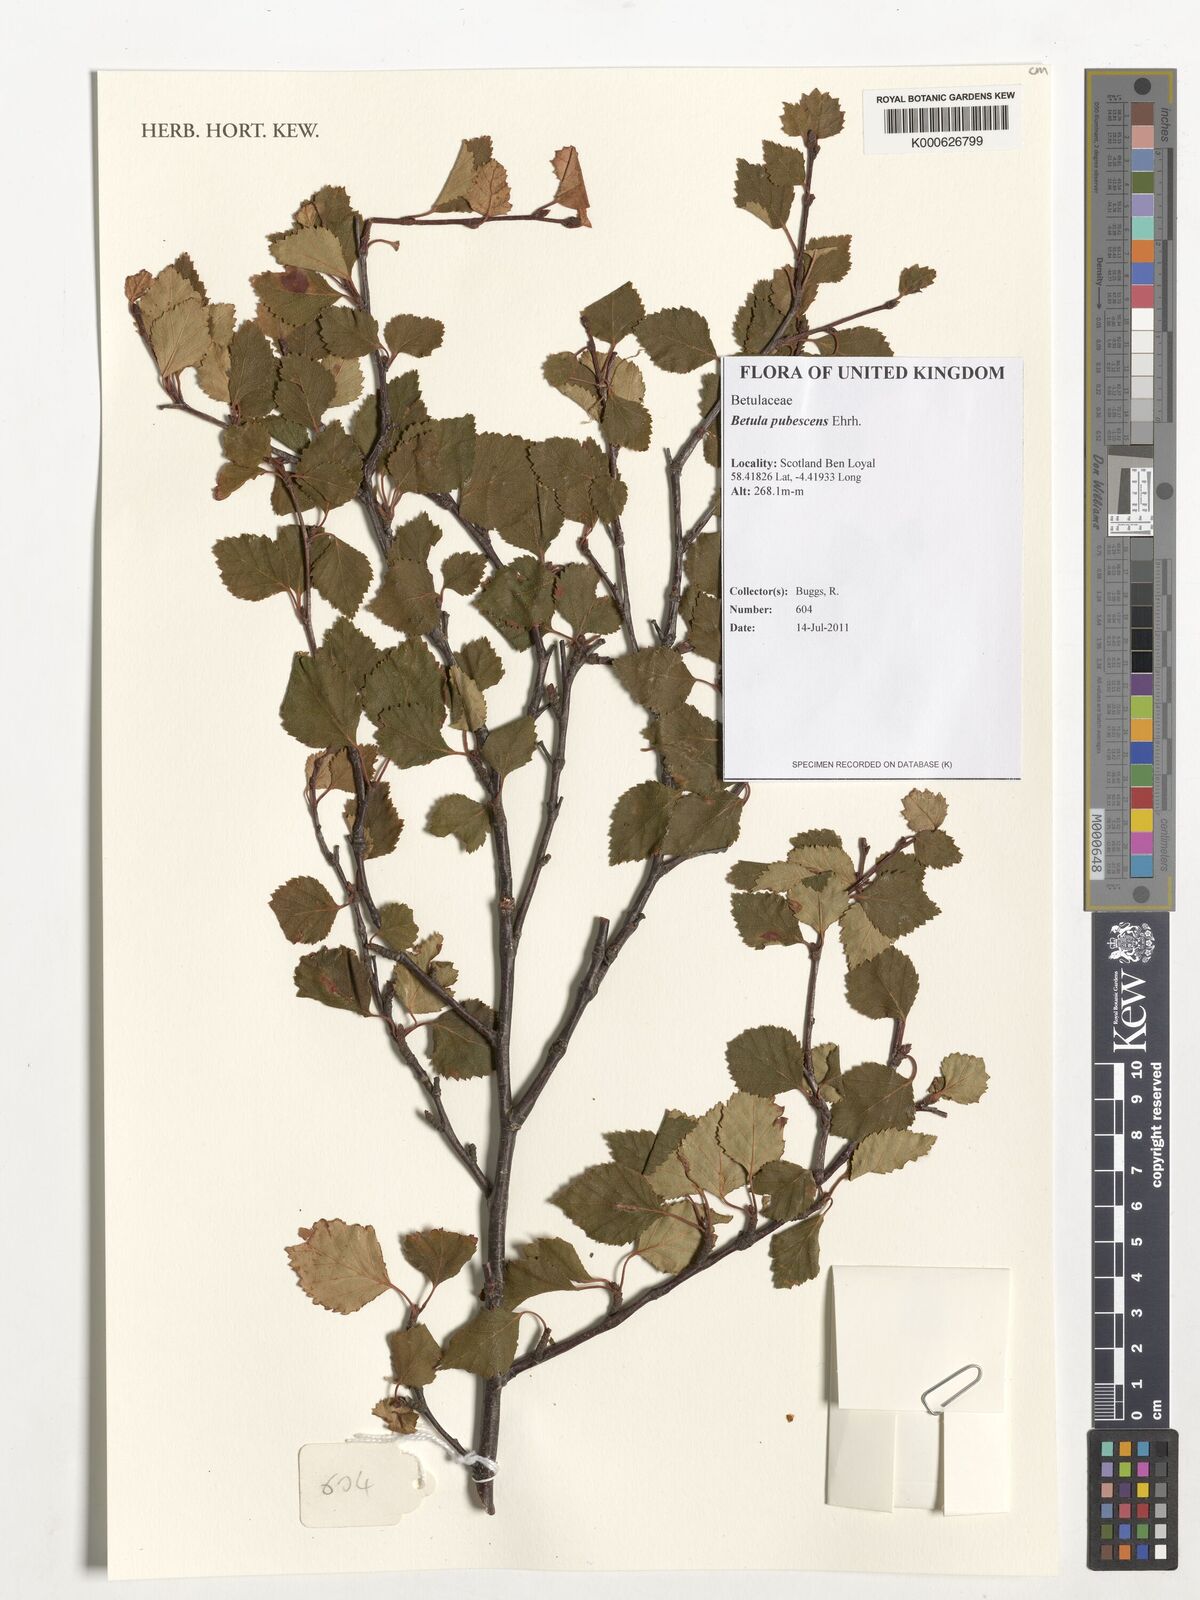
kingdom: Plantae
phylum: Tracheophyta
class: Magnoliopsida
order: Fagales
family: Betulaceae
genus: Betula
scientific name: Betula pubescens
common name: Downy birch
